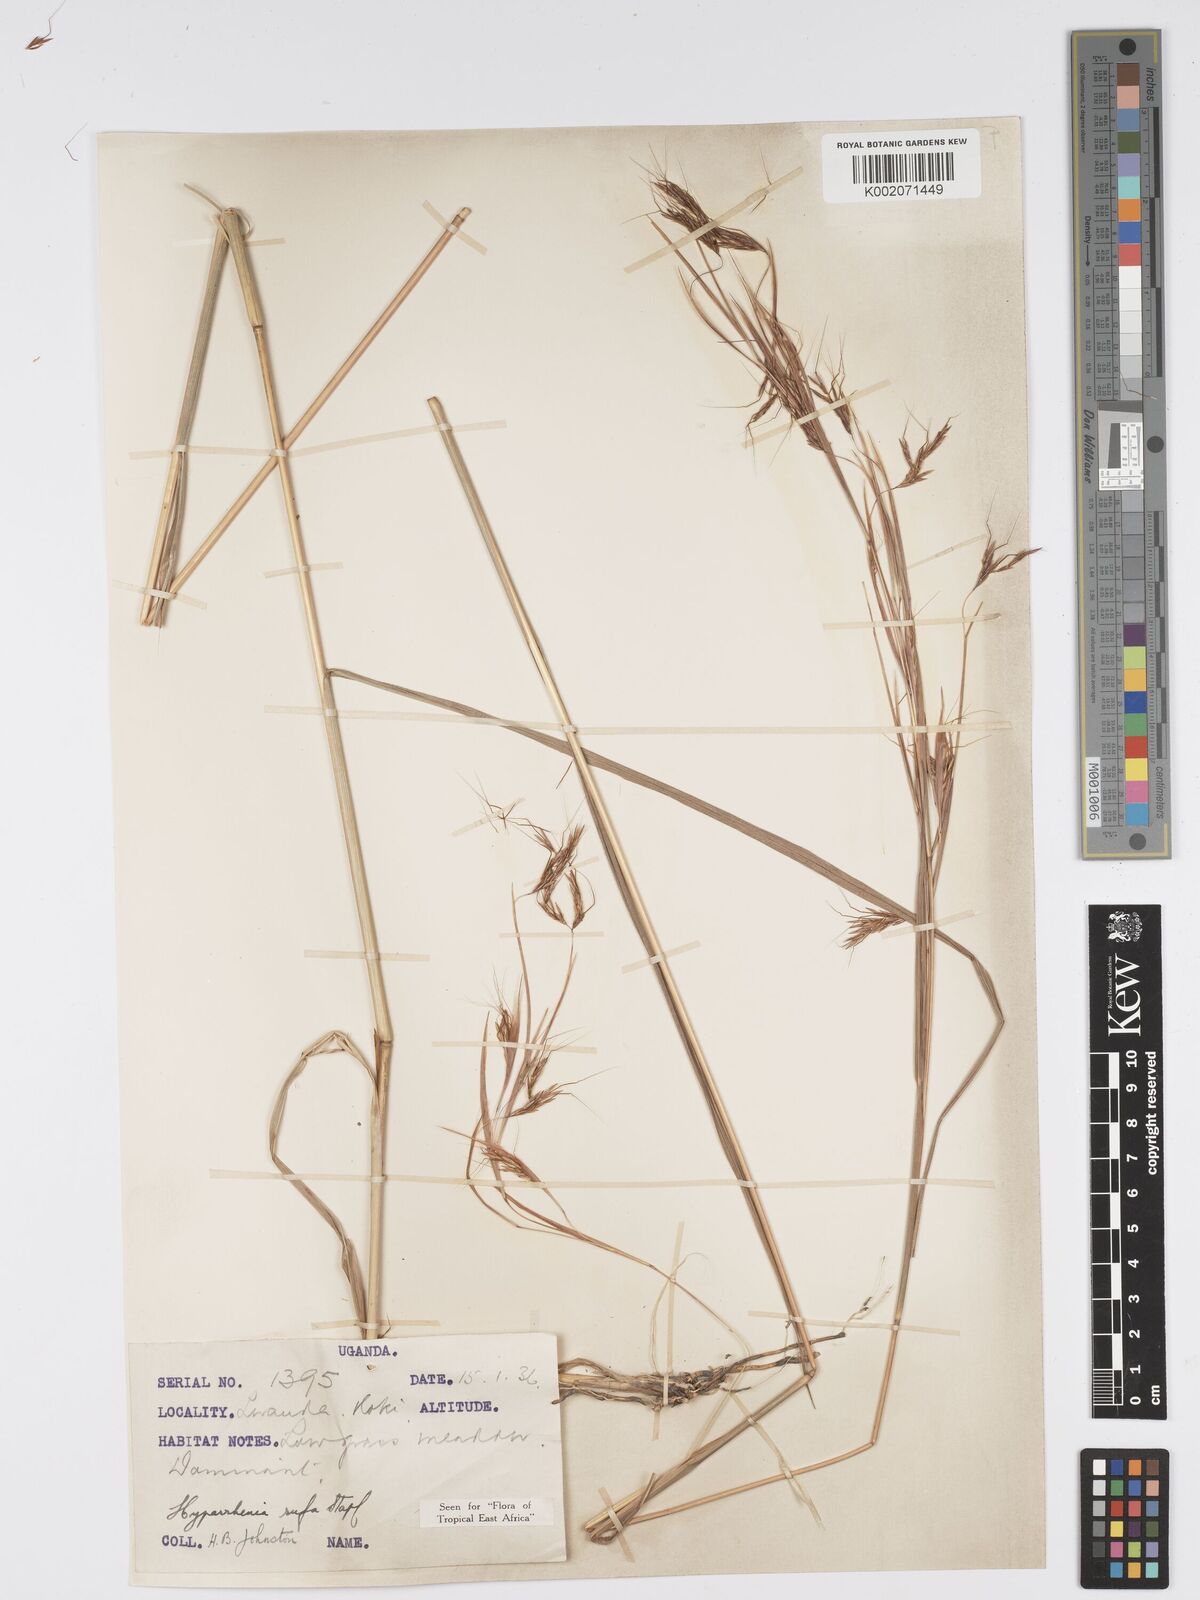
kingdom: Plantae
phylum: Tracheophyta
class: Liliopsida
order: Poales
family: Poaceae
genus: Hyparrhenia
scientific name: Hyparrhenia rufa
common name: Jaraguagrass
